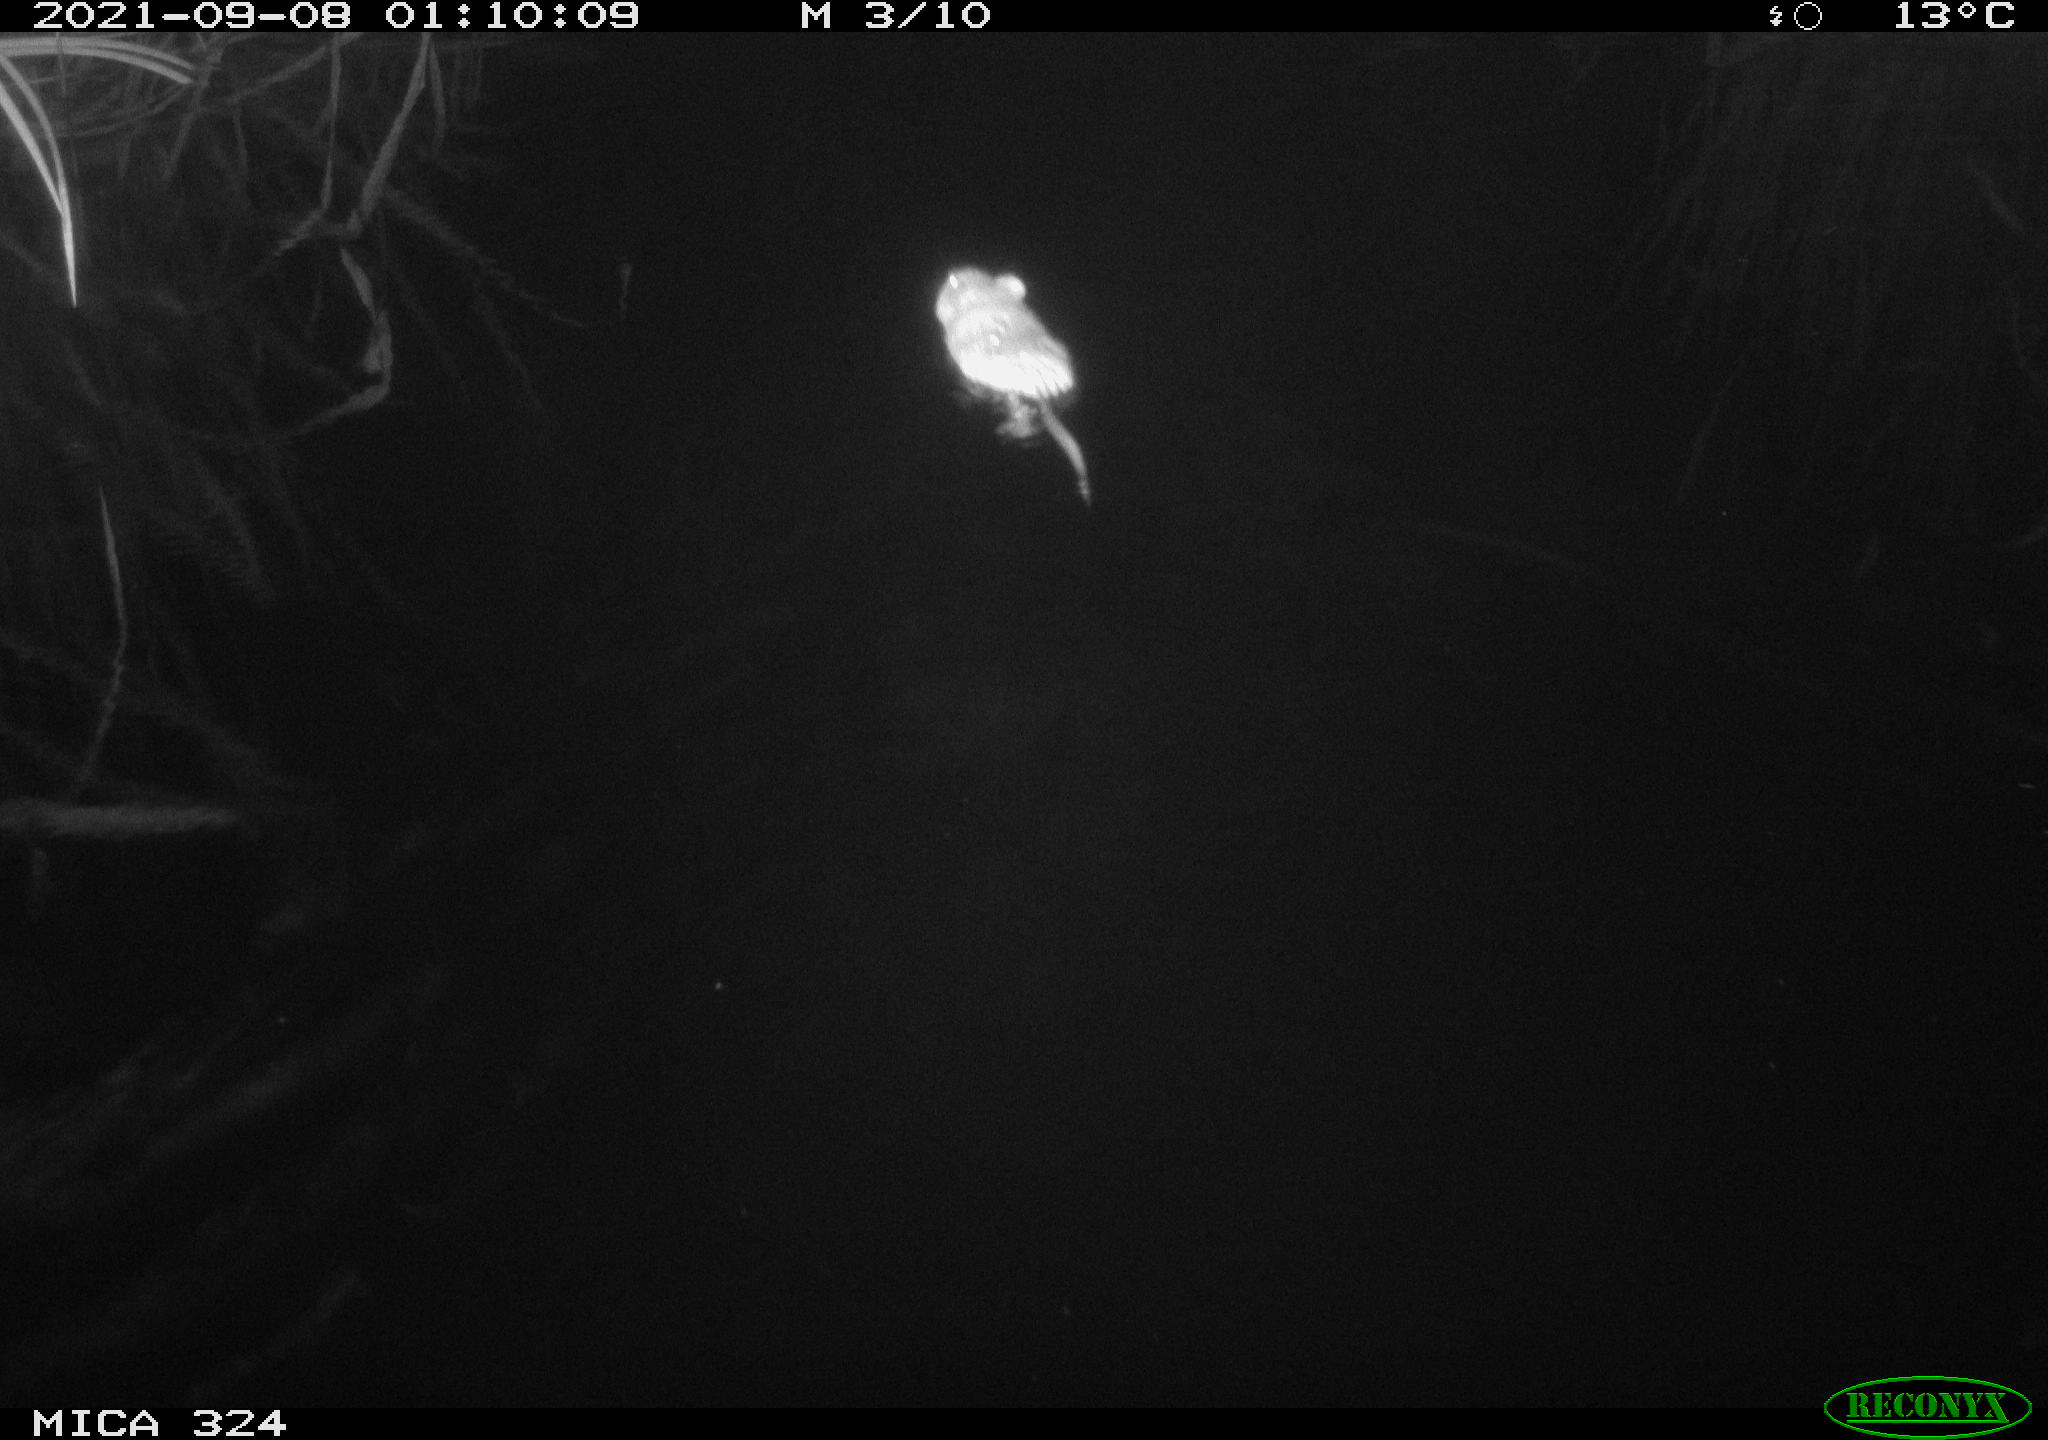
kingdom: Animalia
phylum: Chordata
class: Mammalia
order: Rodentia
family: Cricetidae
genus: Ondatra
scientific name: Ondatra zibethicus
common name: Muskrat
